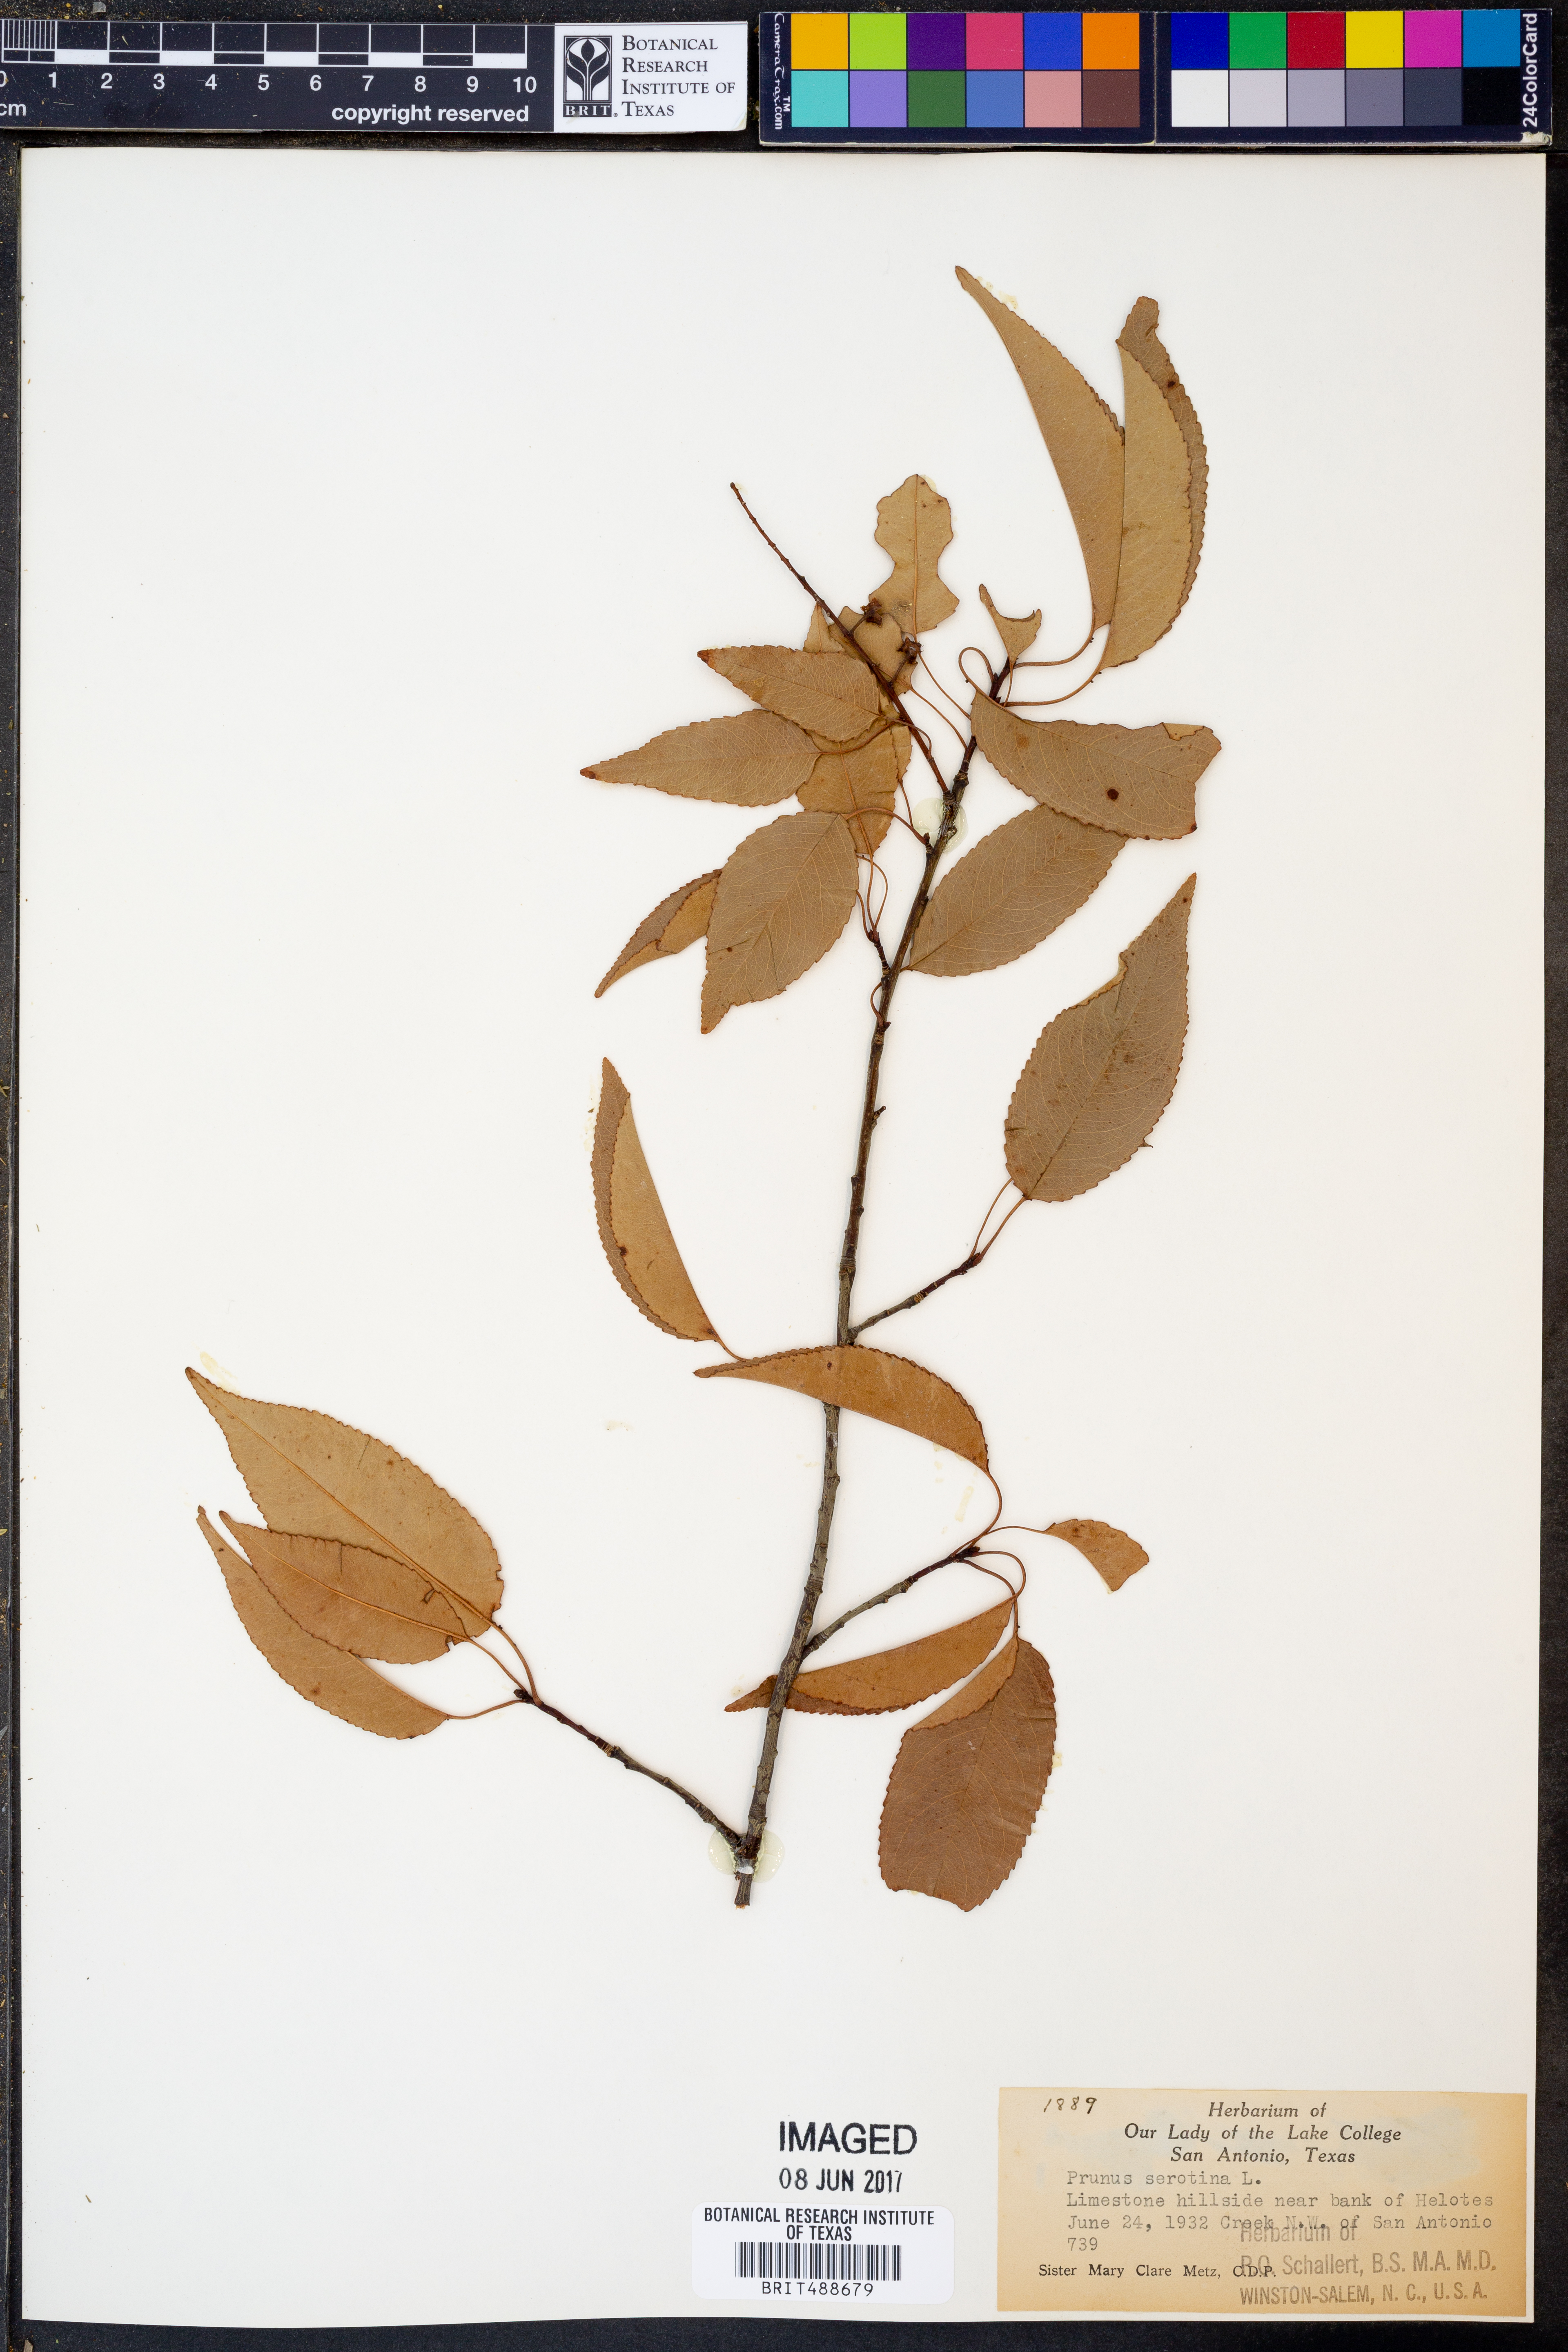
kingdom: Plantae
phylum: Tracheophyta
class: Magnoliopsida
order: Rosales
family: Rosaceae
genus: Prunus
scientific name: Prunus serotina
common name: Black cherry
